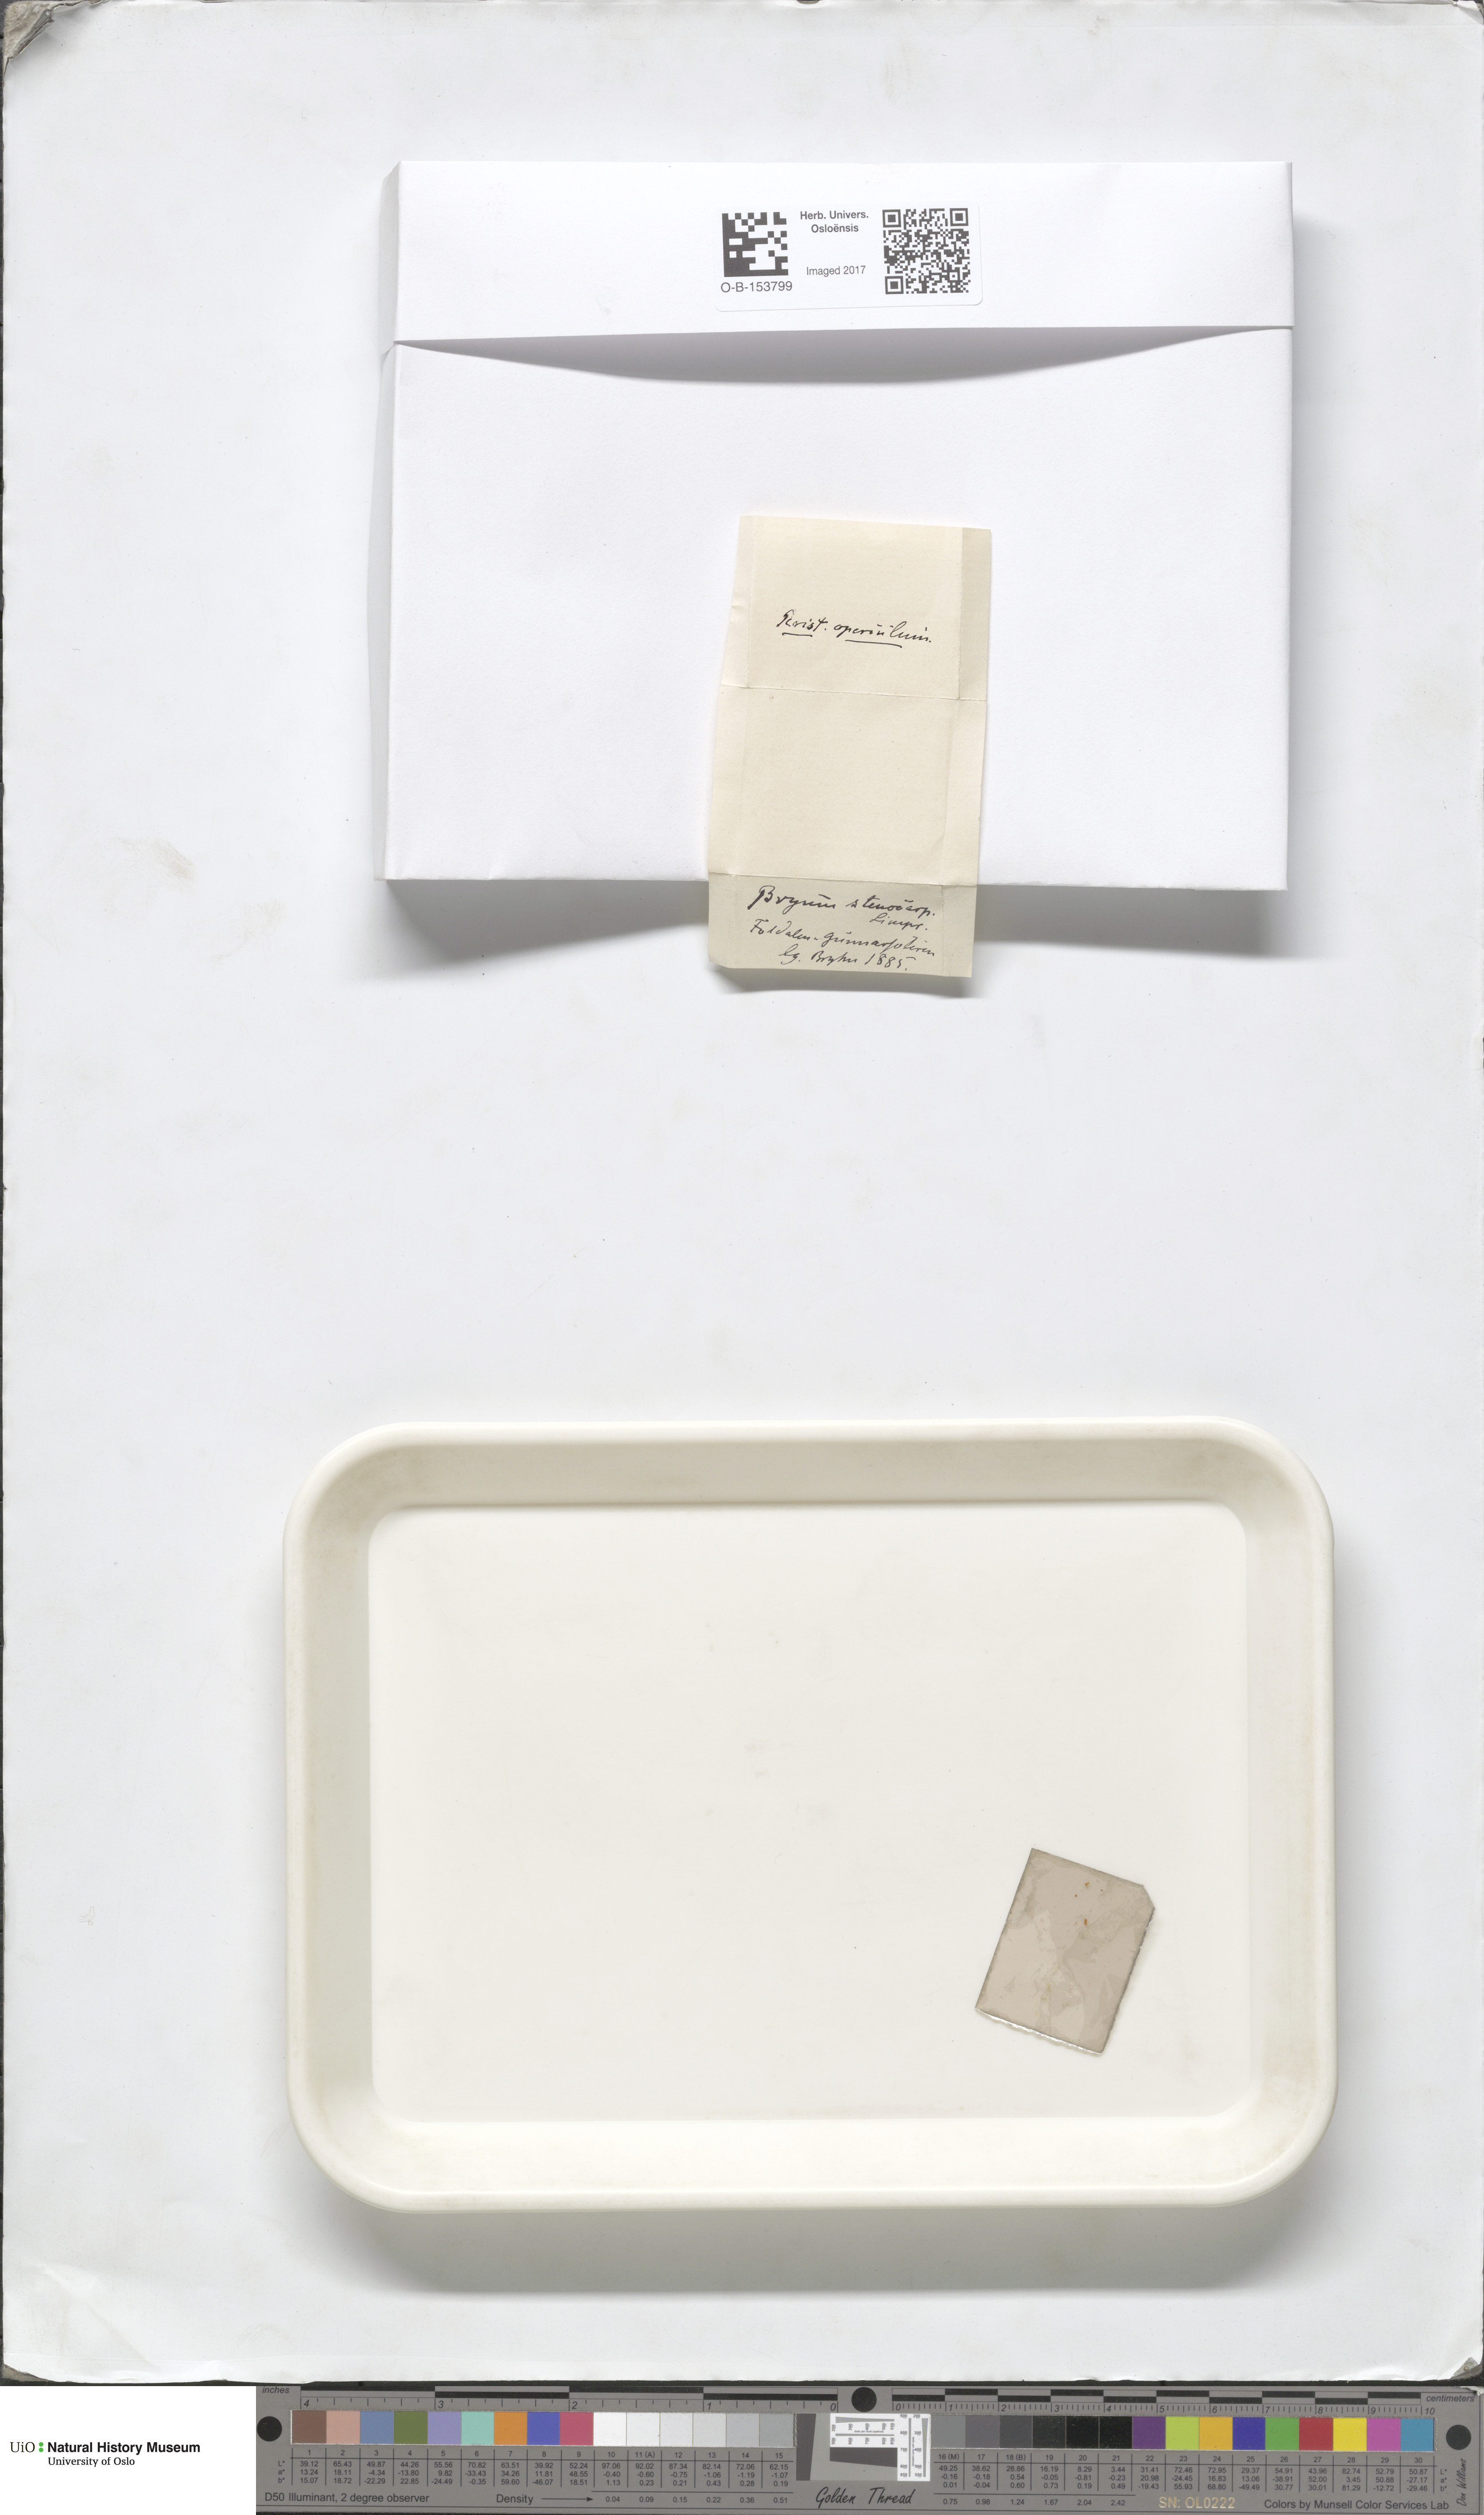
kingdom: Plantae
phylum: Bryophyta
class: Bryopsida
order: Bryales
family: Bryaceae
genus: Ptychostomum
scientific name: Ptychostomum arcticum
